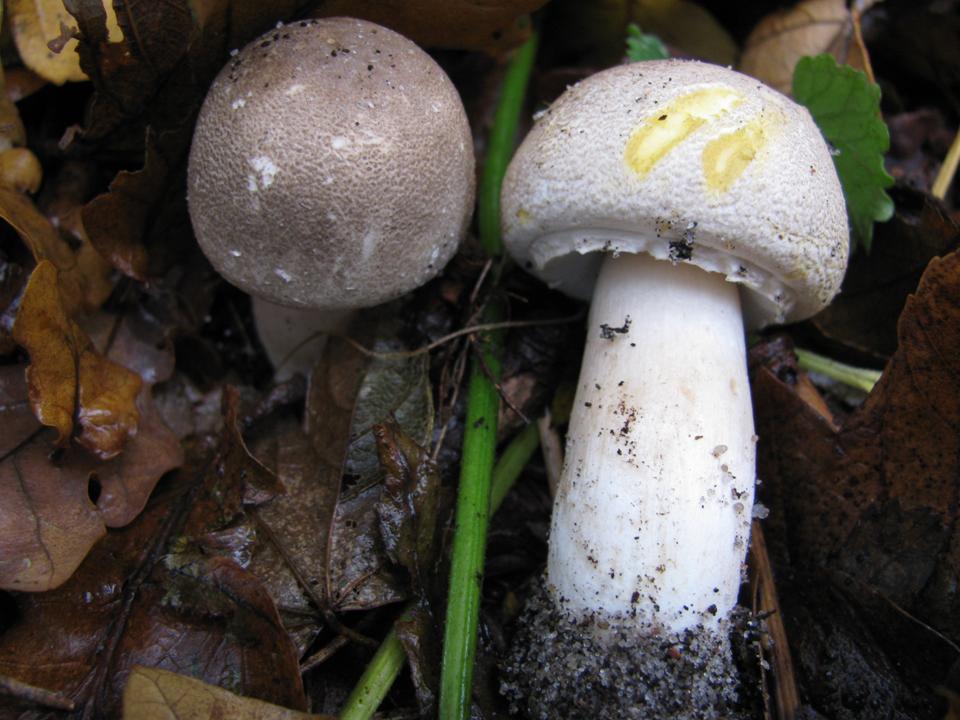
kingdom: Fungi
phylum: Basidiomycota
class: Agaricomycetes
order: Agaricales
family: Agaricaceae
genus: Agaricus
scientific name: Agaricus moelleri
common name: perlehøne-champignon
